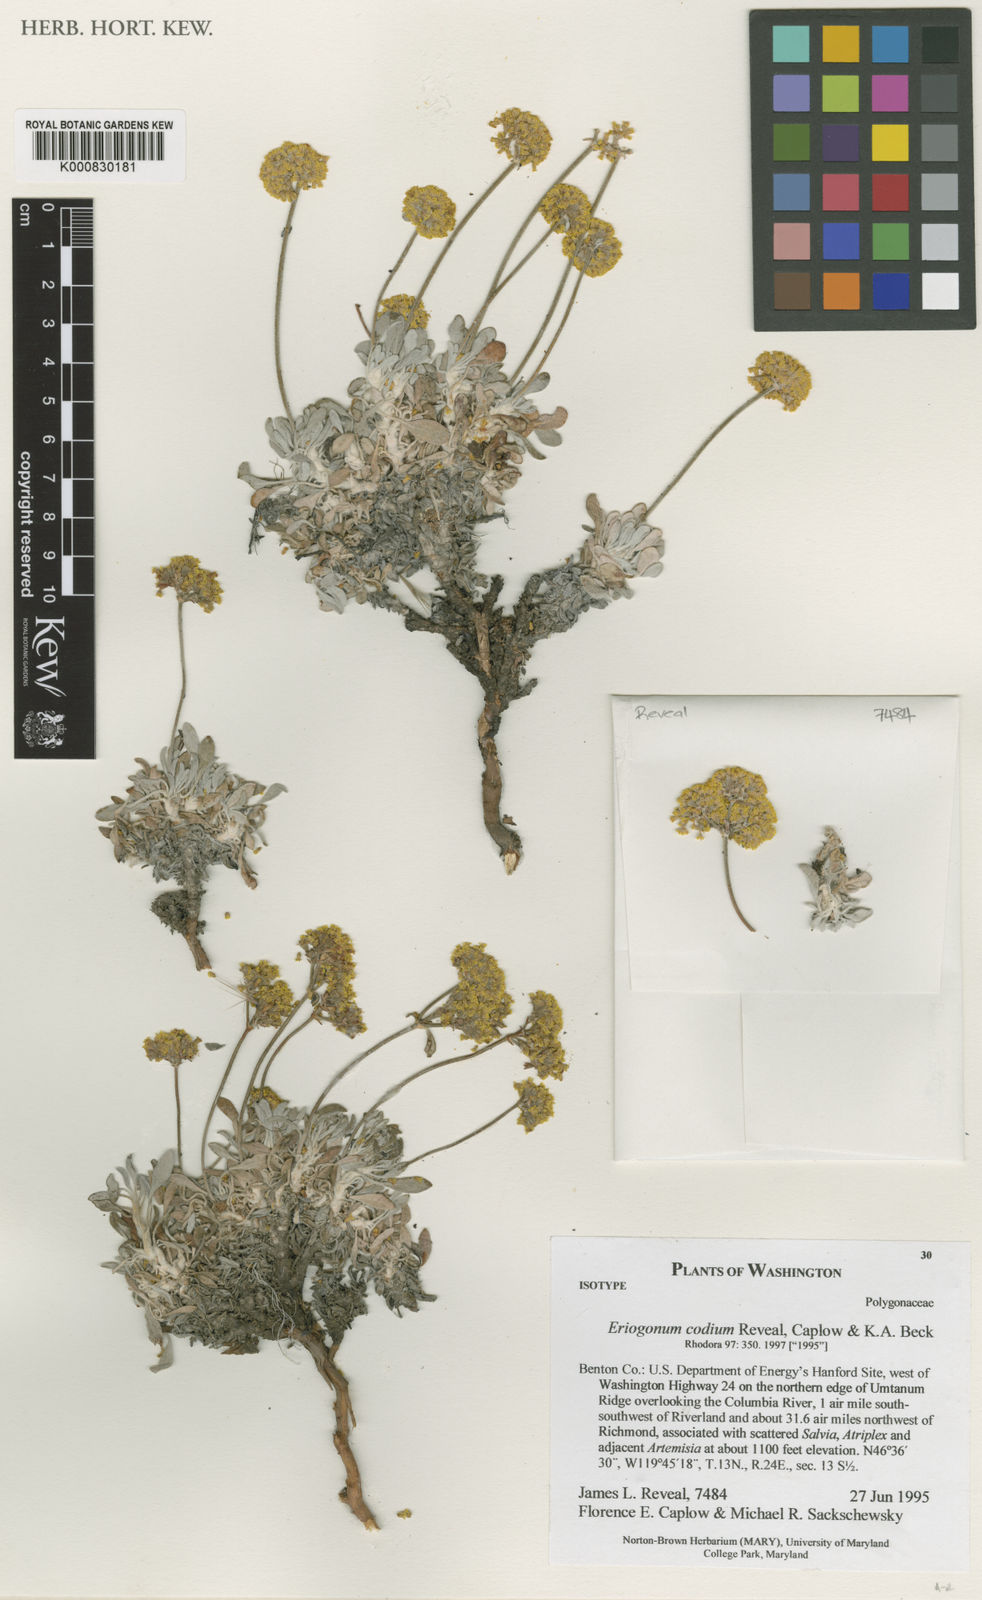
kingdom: Plantae
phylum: Tracheophyta
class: Magnoliopsida
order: Caryophyllales
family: Polygonaceae
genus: Eriogonum
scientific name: Eriogonum
